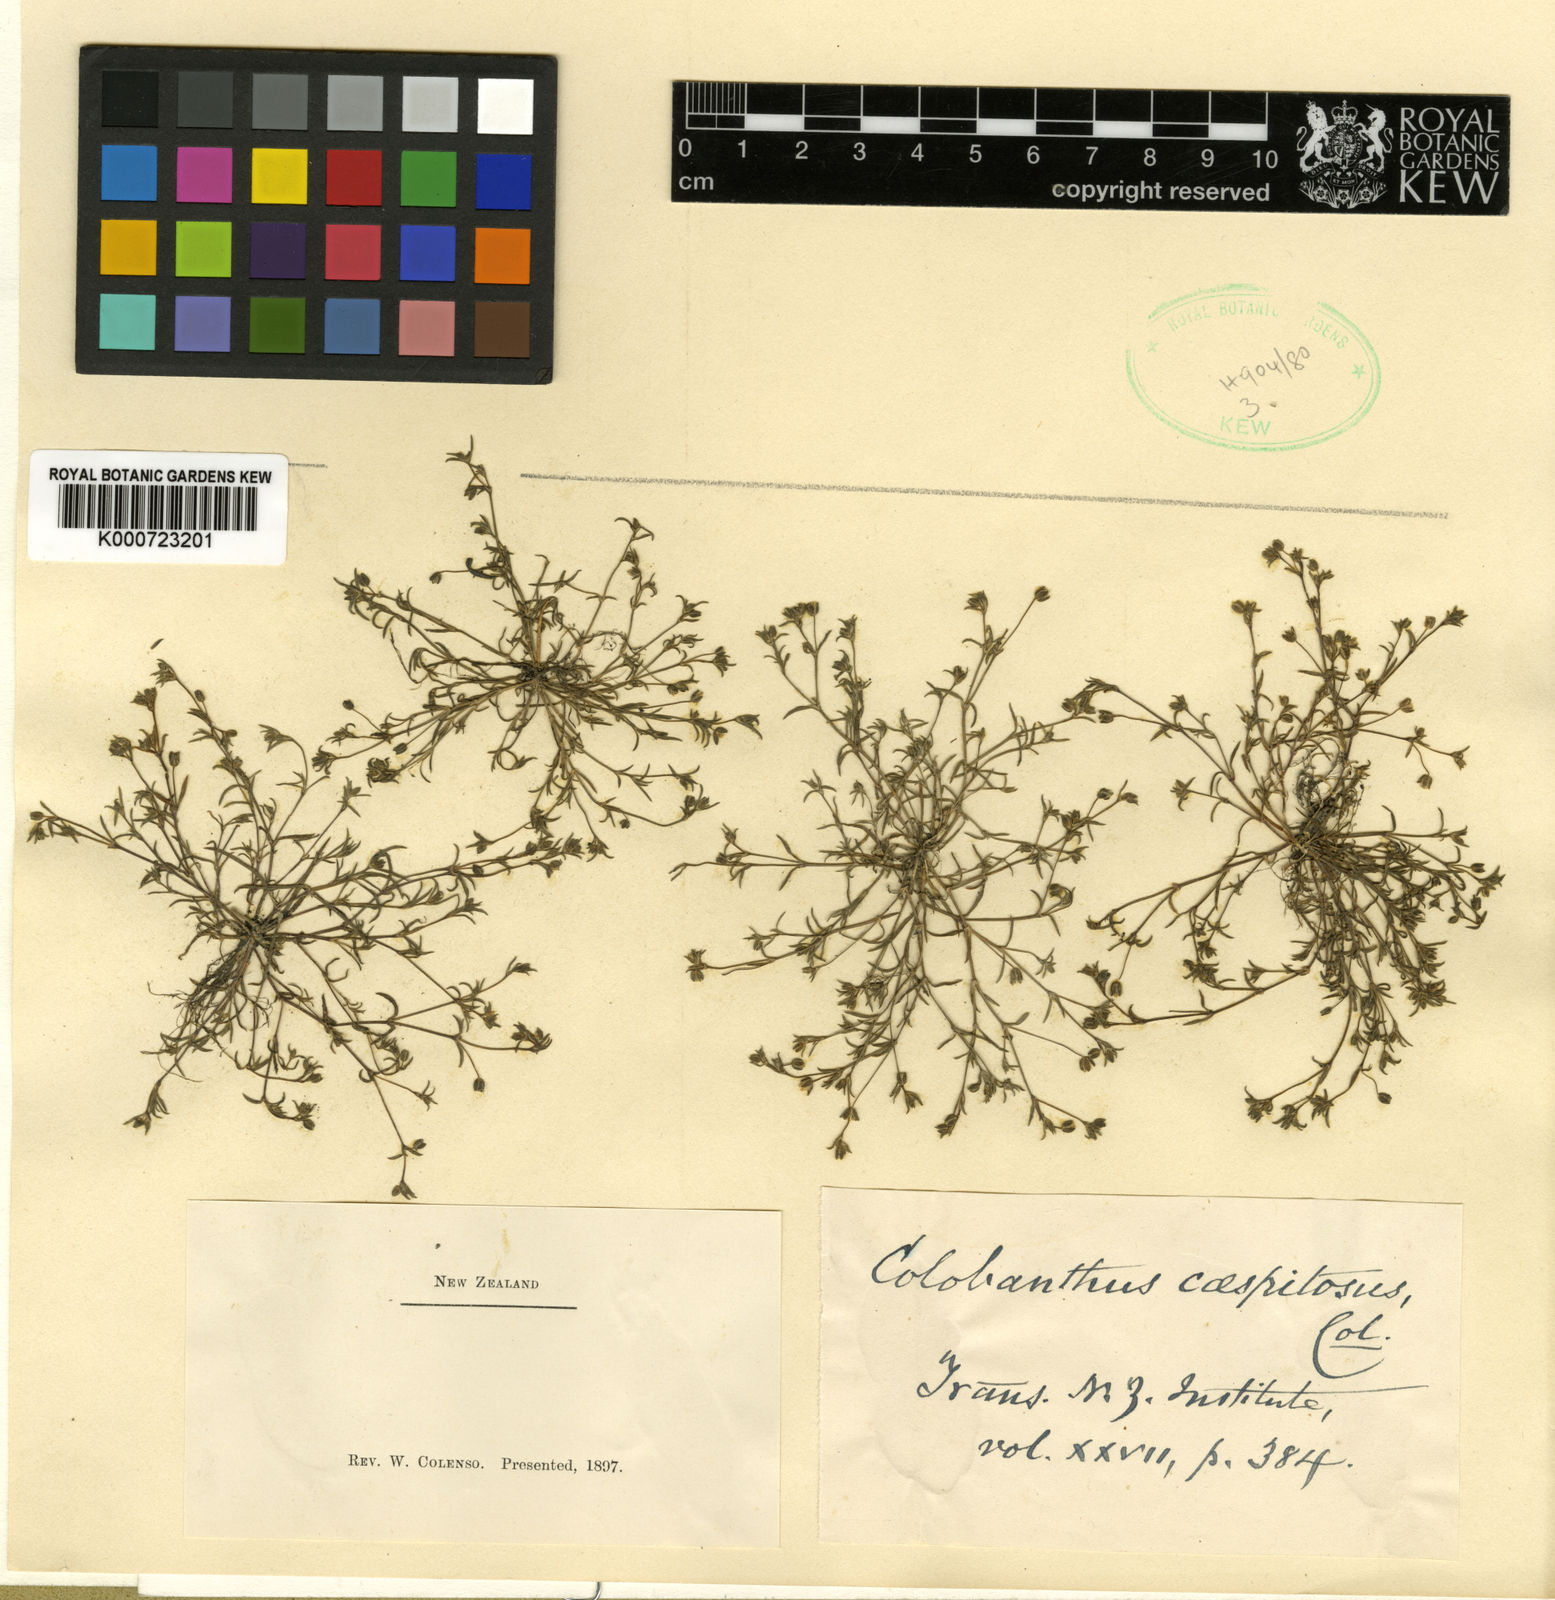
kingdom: Plantae
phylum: Tracheophyta
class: Magnoliopsida
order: Caryophyllales
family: Caryophyllaceae
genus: Colobanthus
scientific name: Colobanthus apetalus
